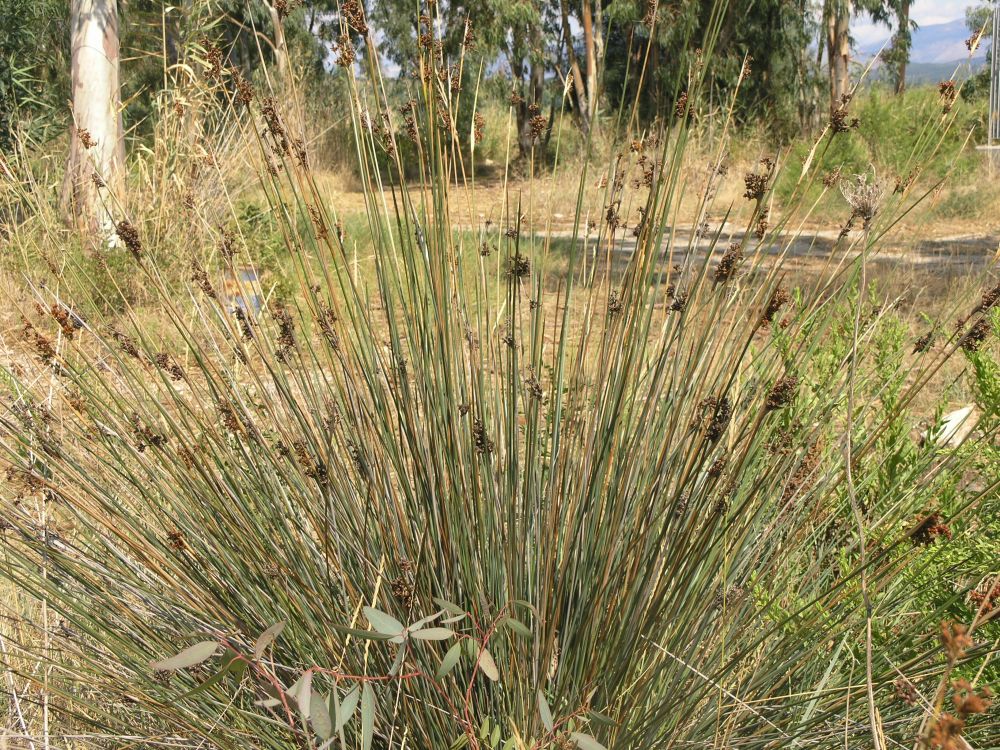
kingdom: Plantae
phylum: Tracheophyta
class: Liliopsida
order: Poales
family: Juncaceae
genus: Juncus
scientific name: Juncus heldreichianus
